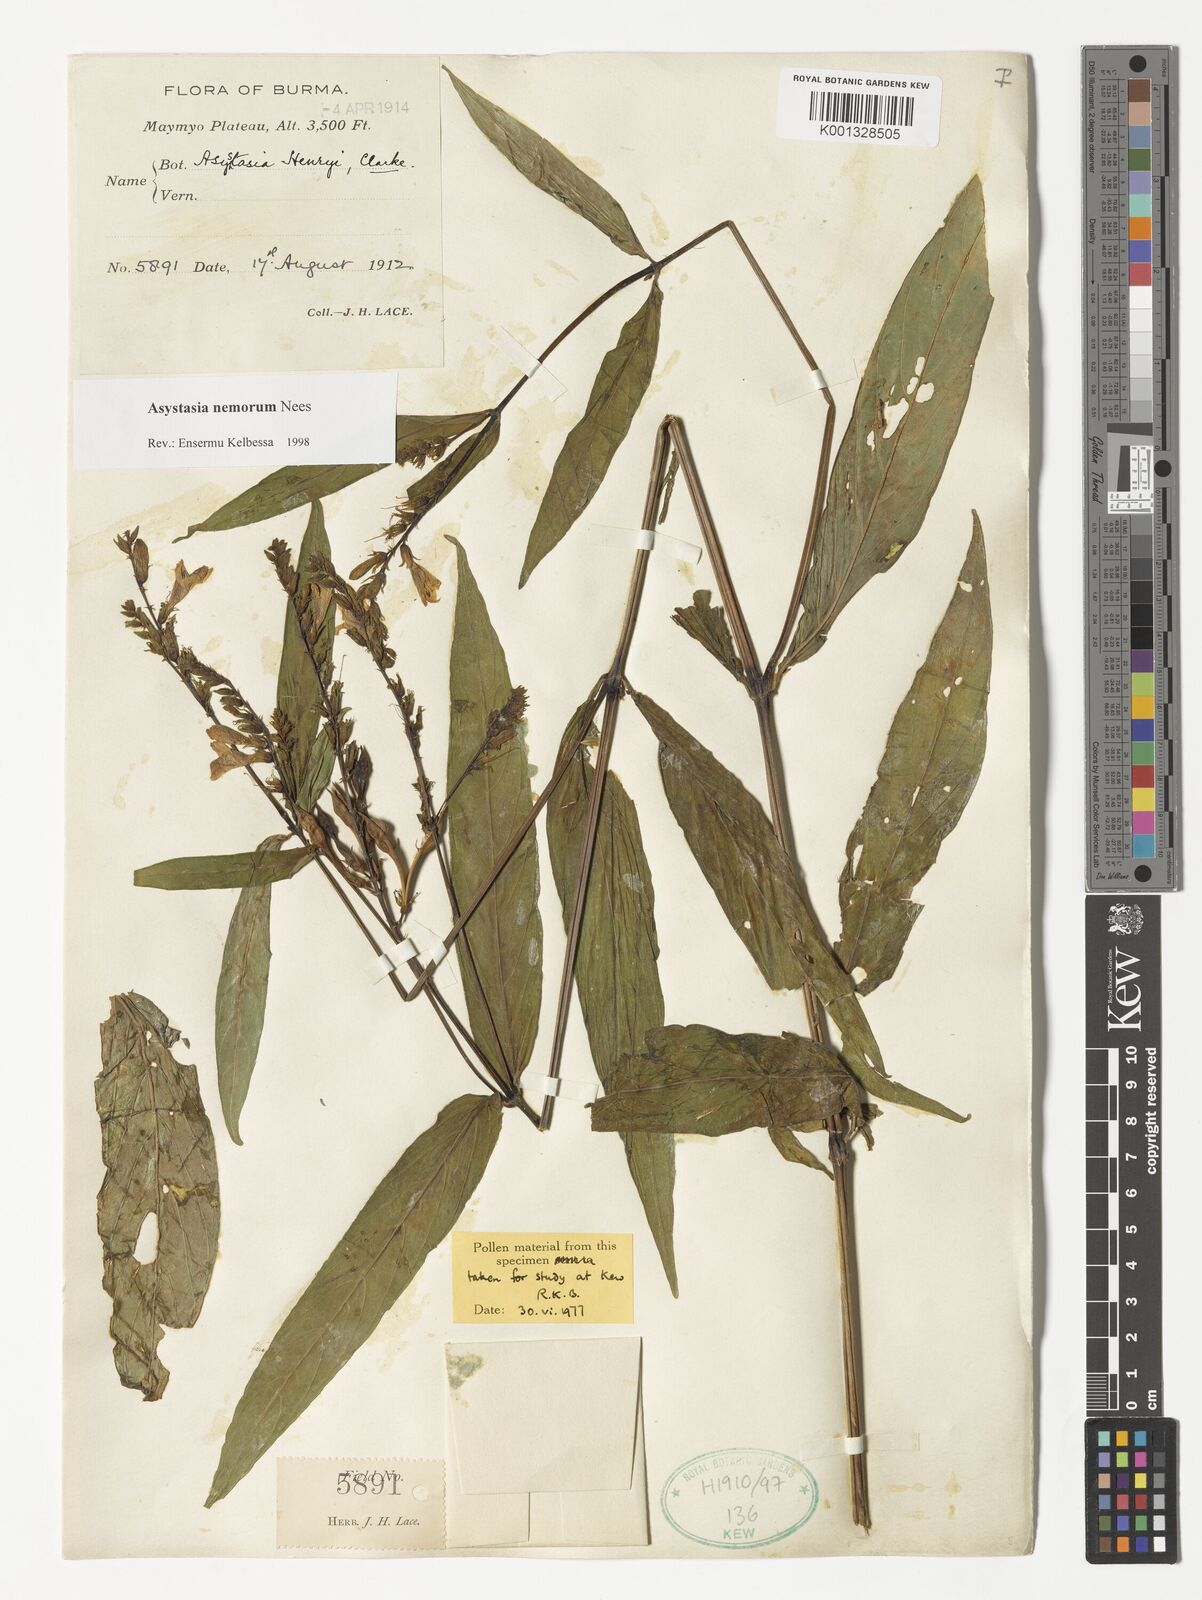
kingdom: Plantae
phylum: Tracheophyta
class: Magnoliopsida
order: Lamiales
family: Acanthaceae
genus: Asystasia
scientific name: Asystasia nemorum
